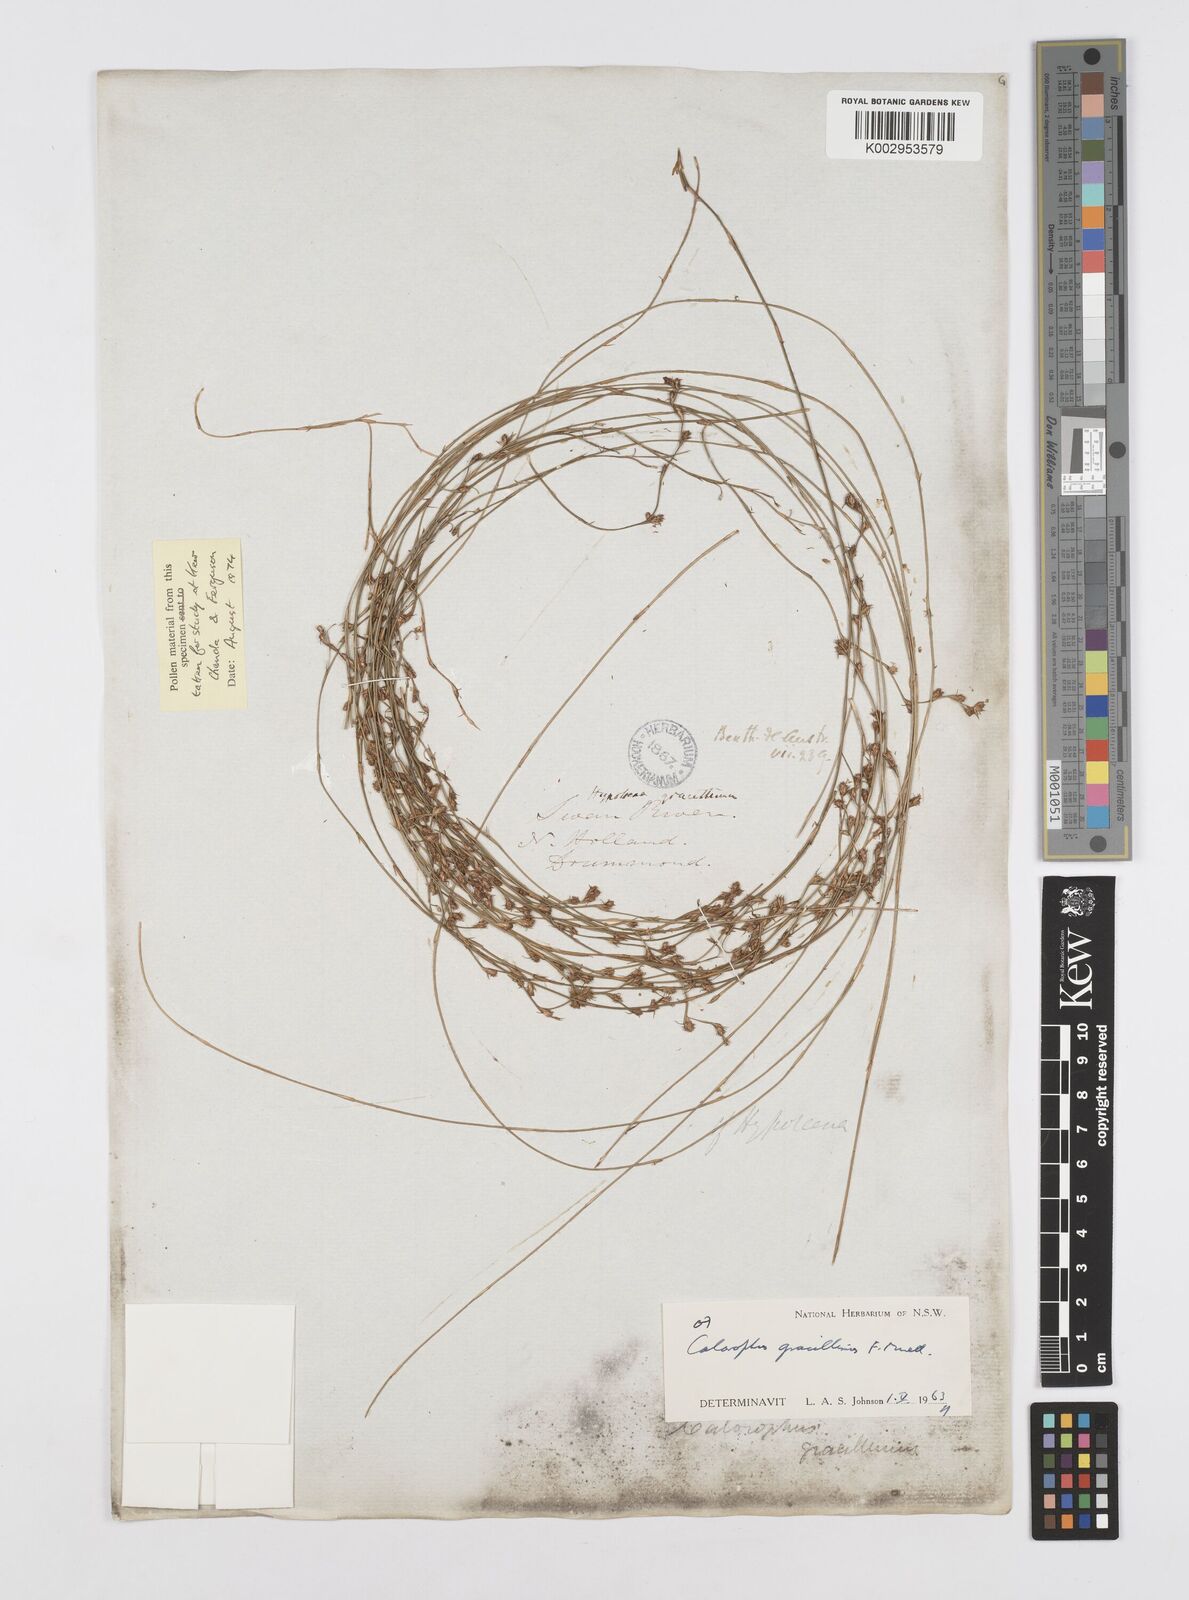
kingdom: Plantae
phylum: Tracheophyta
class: Liliopsida
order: Poales
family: Restionaceae
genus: Empodisma
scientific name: Empodisma gracillimum
